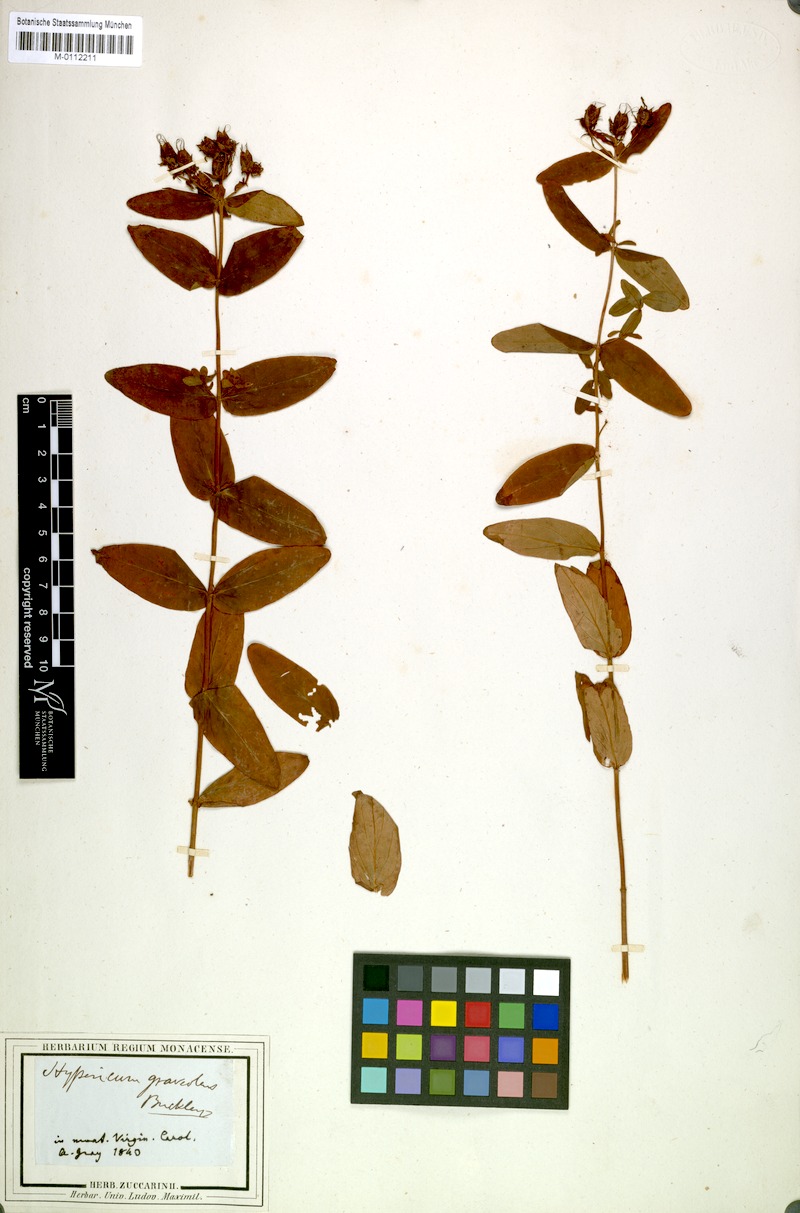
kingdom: Plantae
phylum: Tracheophyta
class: Magnoliopsida
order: Malpighiales
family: Hypericaceae
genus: Hypericum
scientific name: Hypericum graveolens
